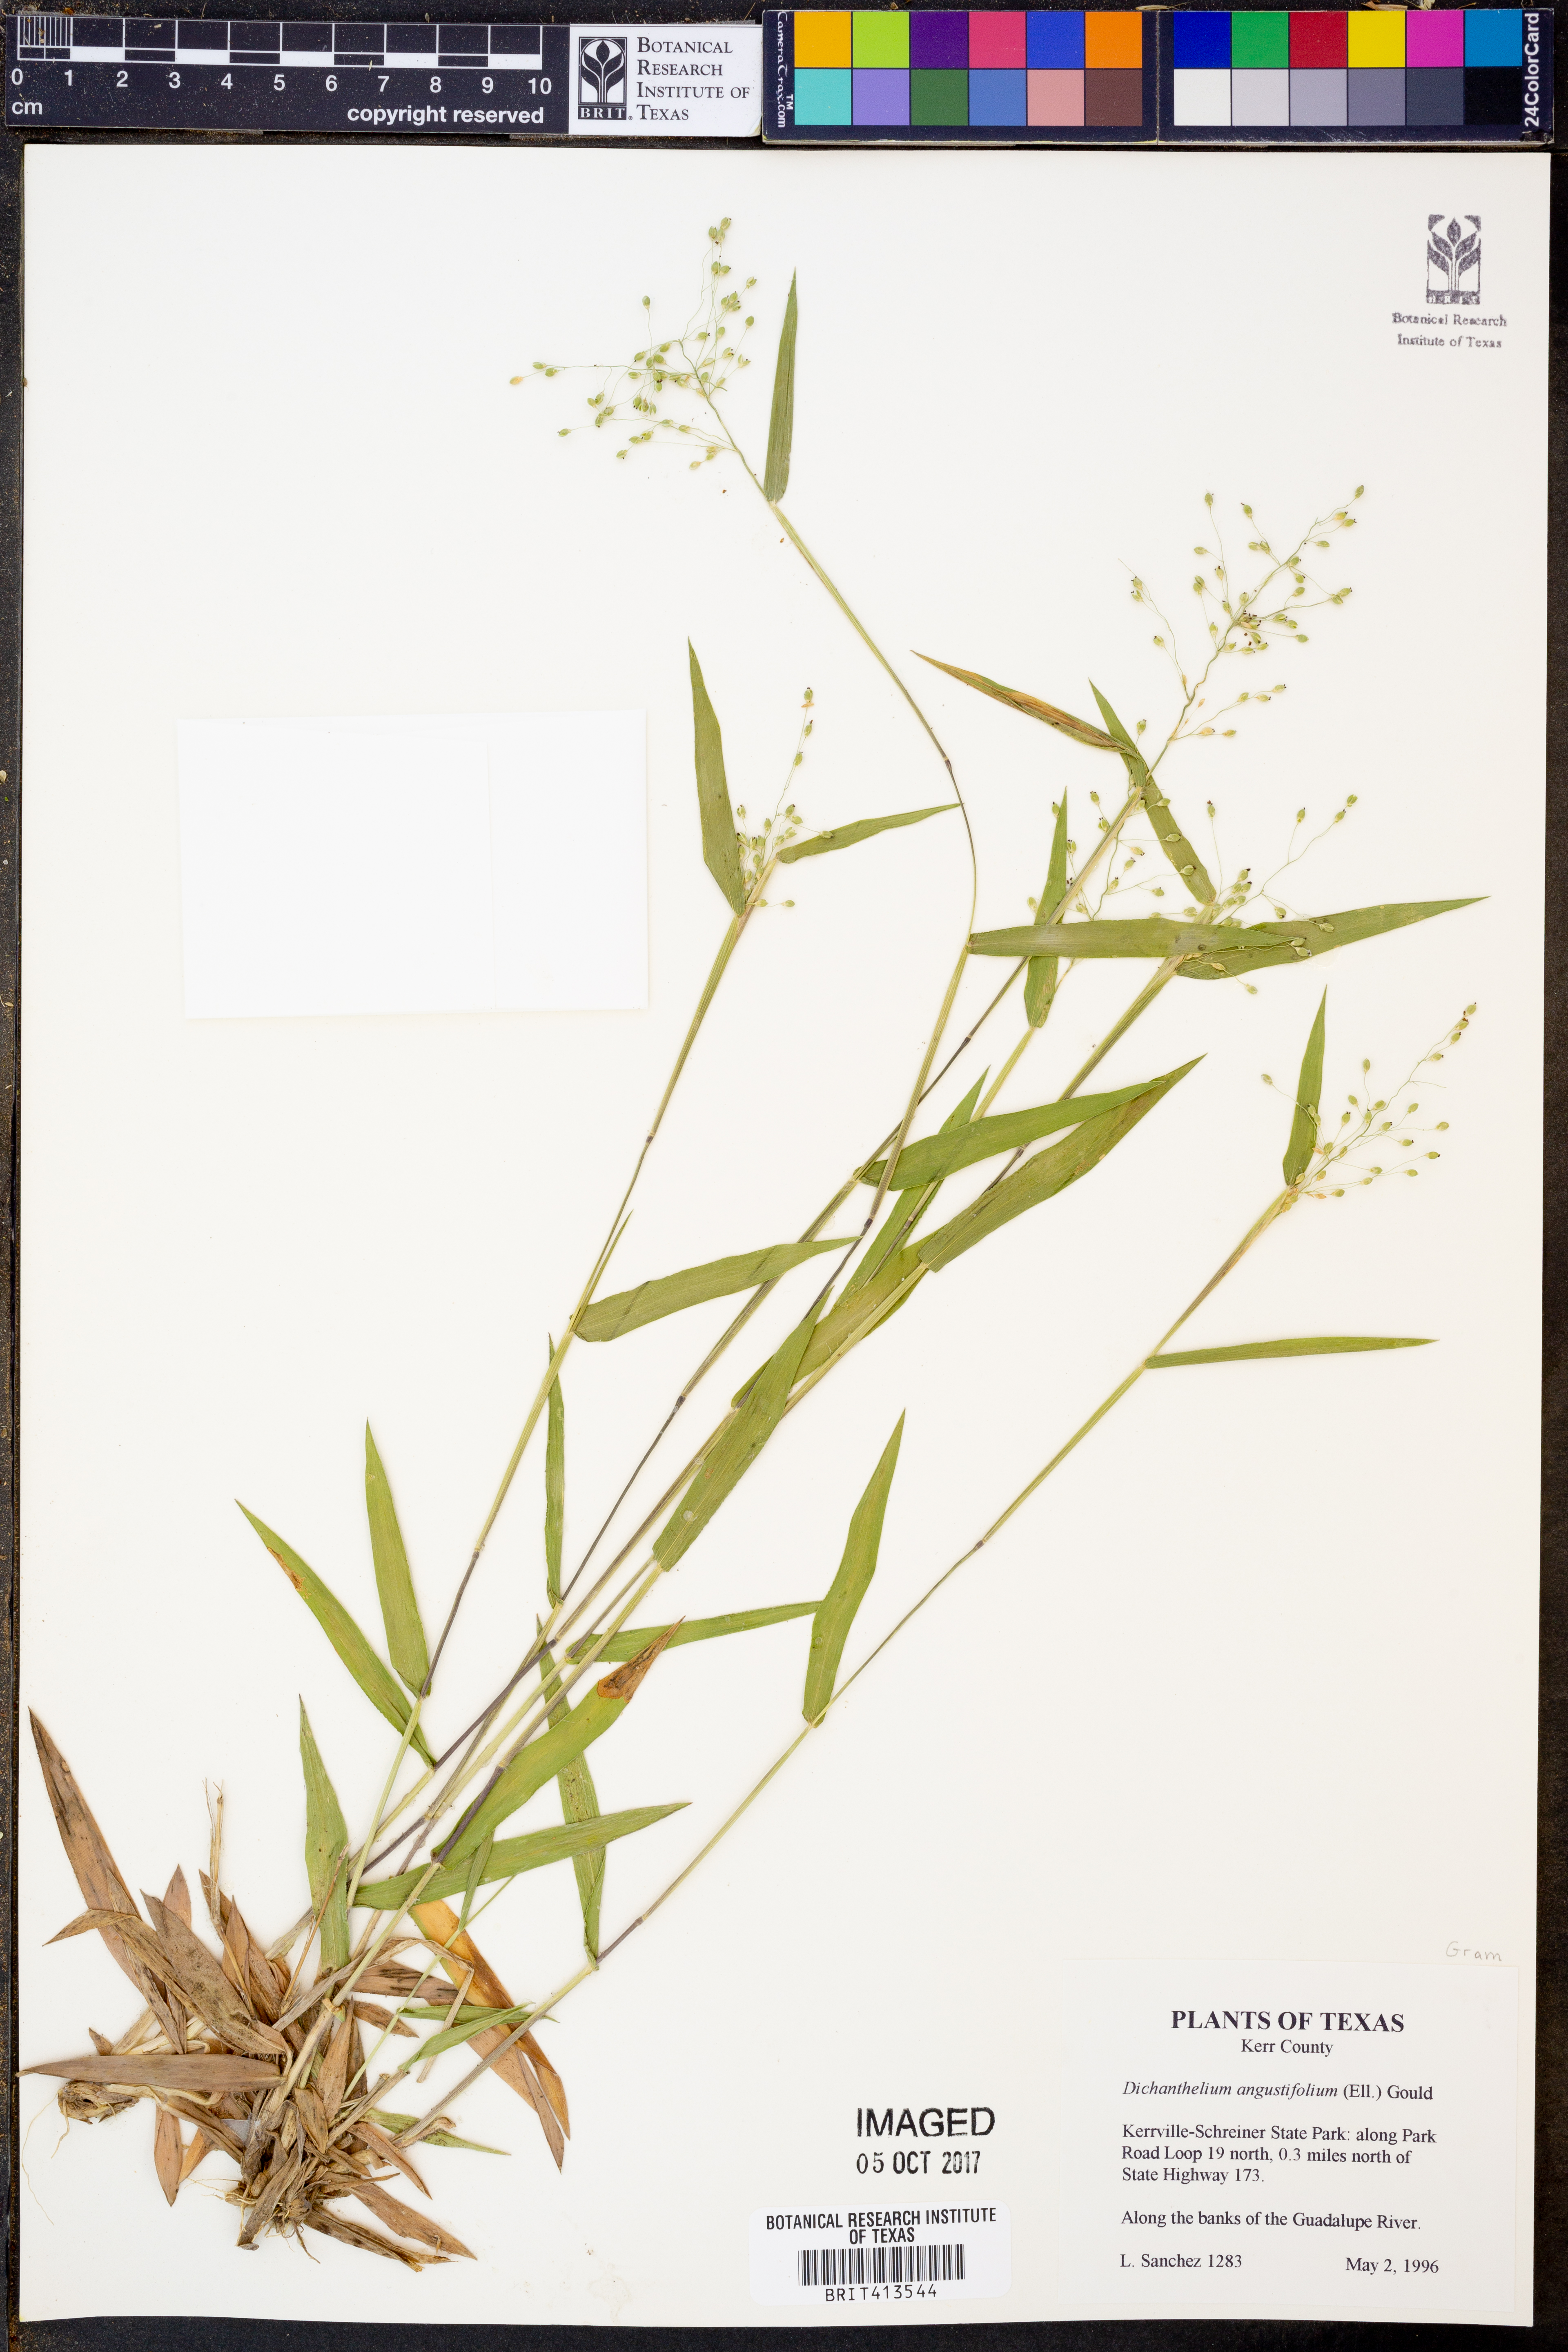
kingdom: Plantae
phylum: Tracheophyta
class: Liliopsida
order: Poales
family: Poaceae
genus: Dichanthelium
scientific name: Dichanthelium angustifolium
